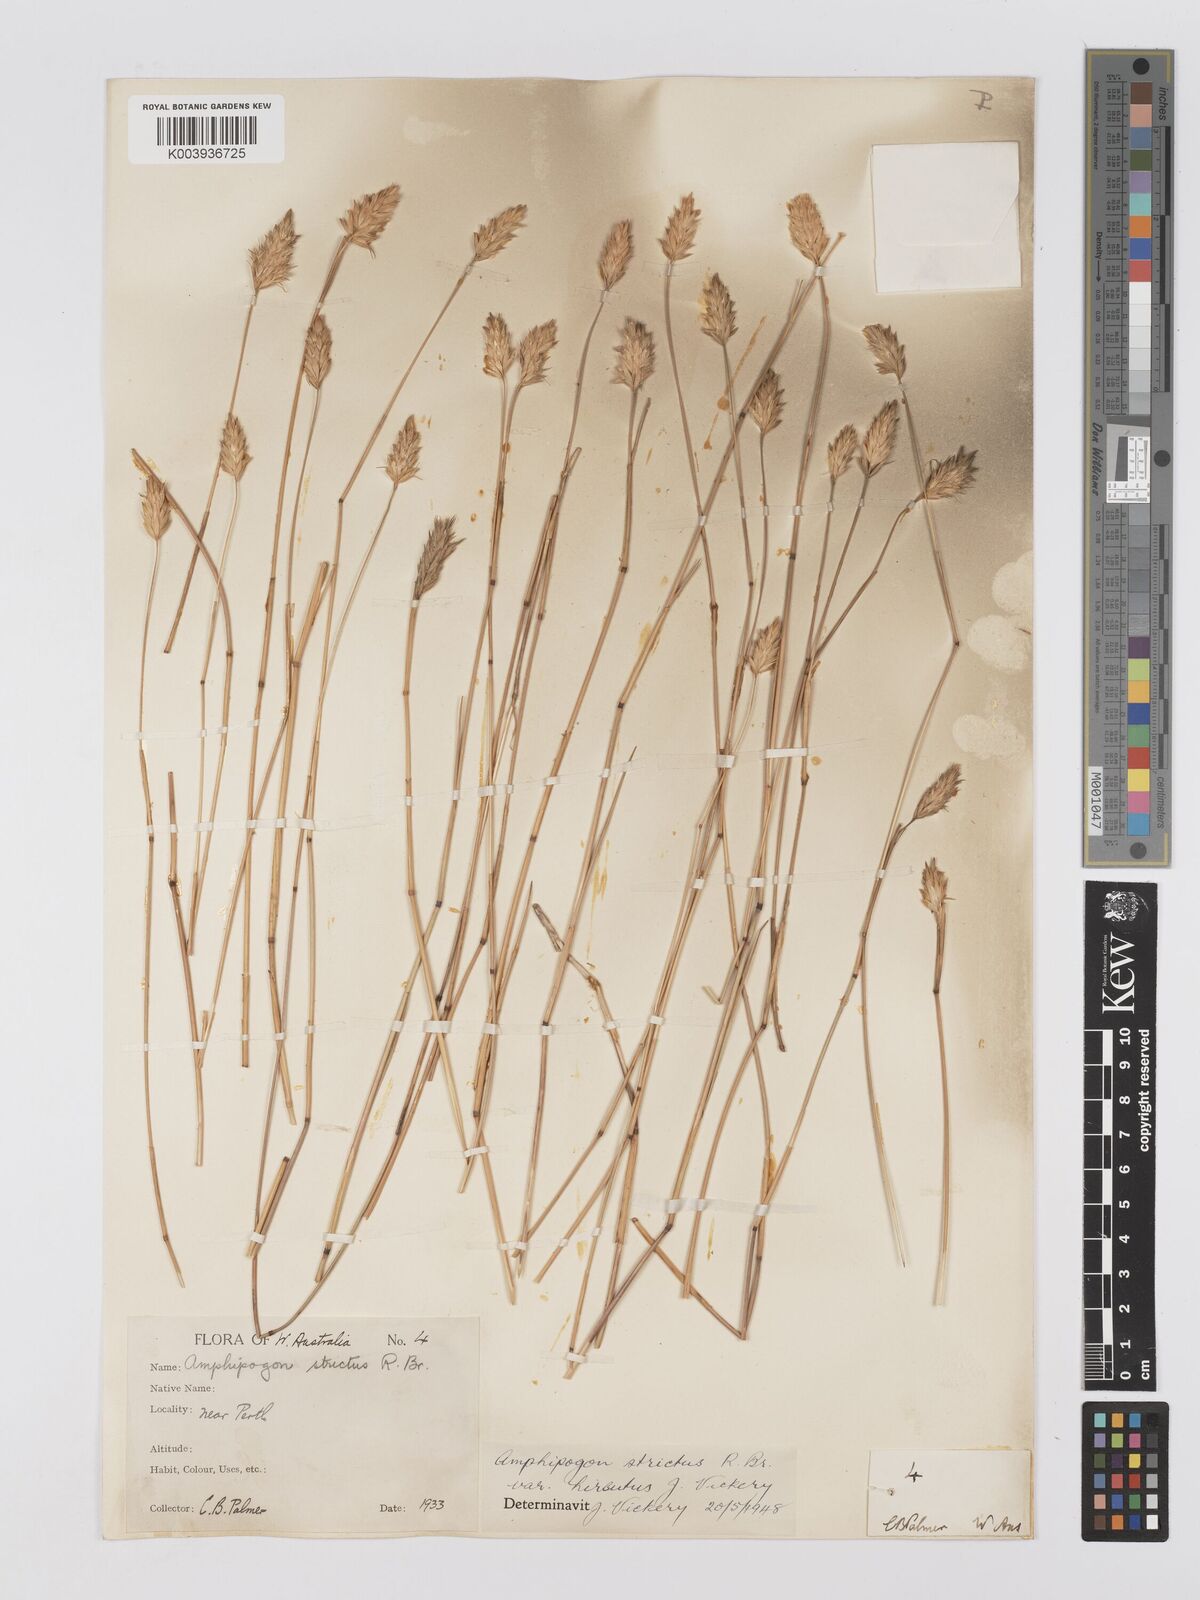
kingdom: Plantae
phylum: Tracheophyta
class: Liliopsida
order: Poales
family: Poaceae
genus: Amphipogon
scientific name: Amphipogon strictus
